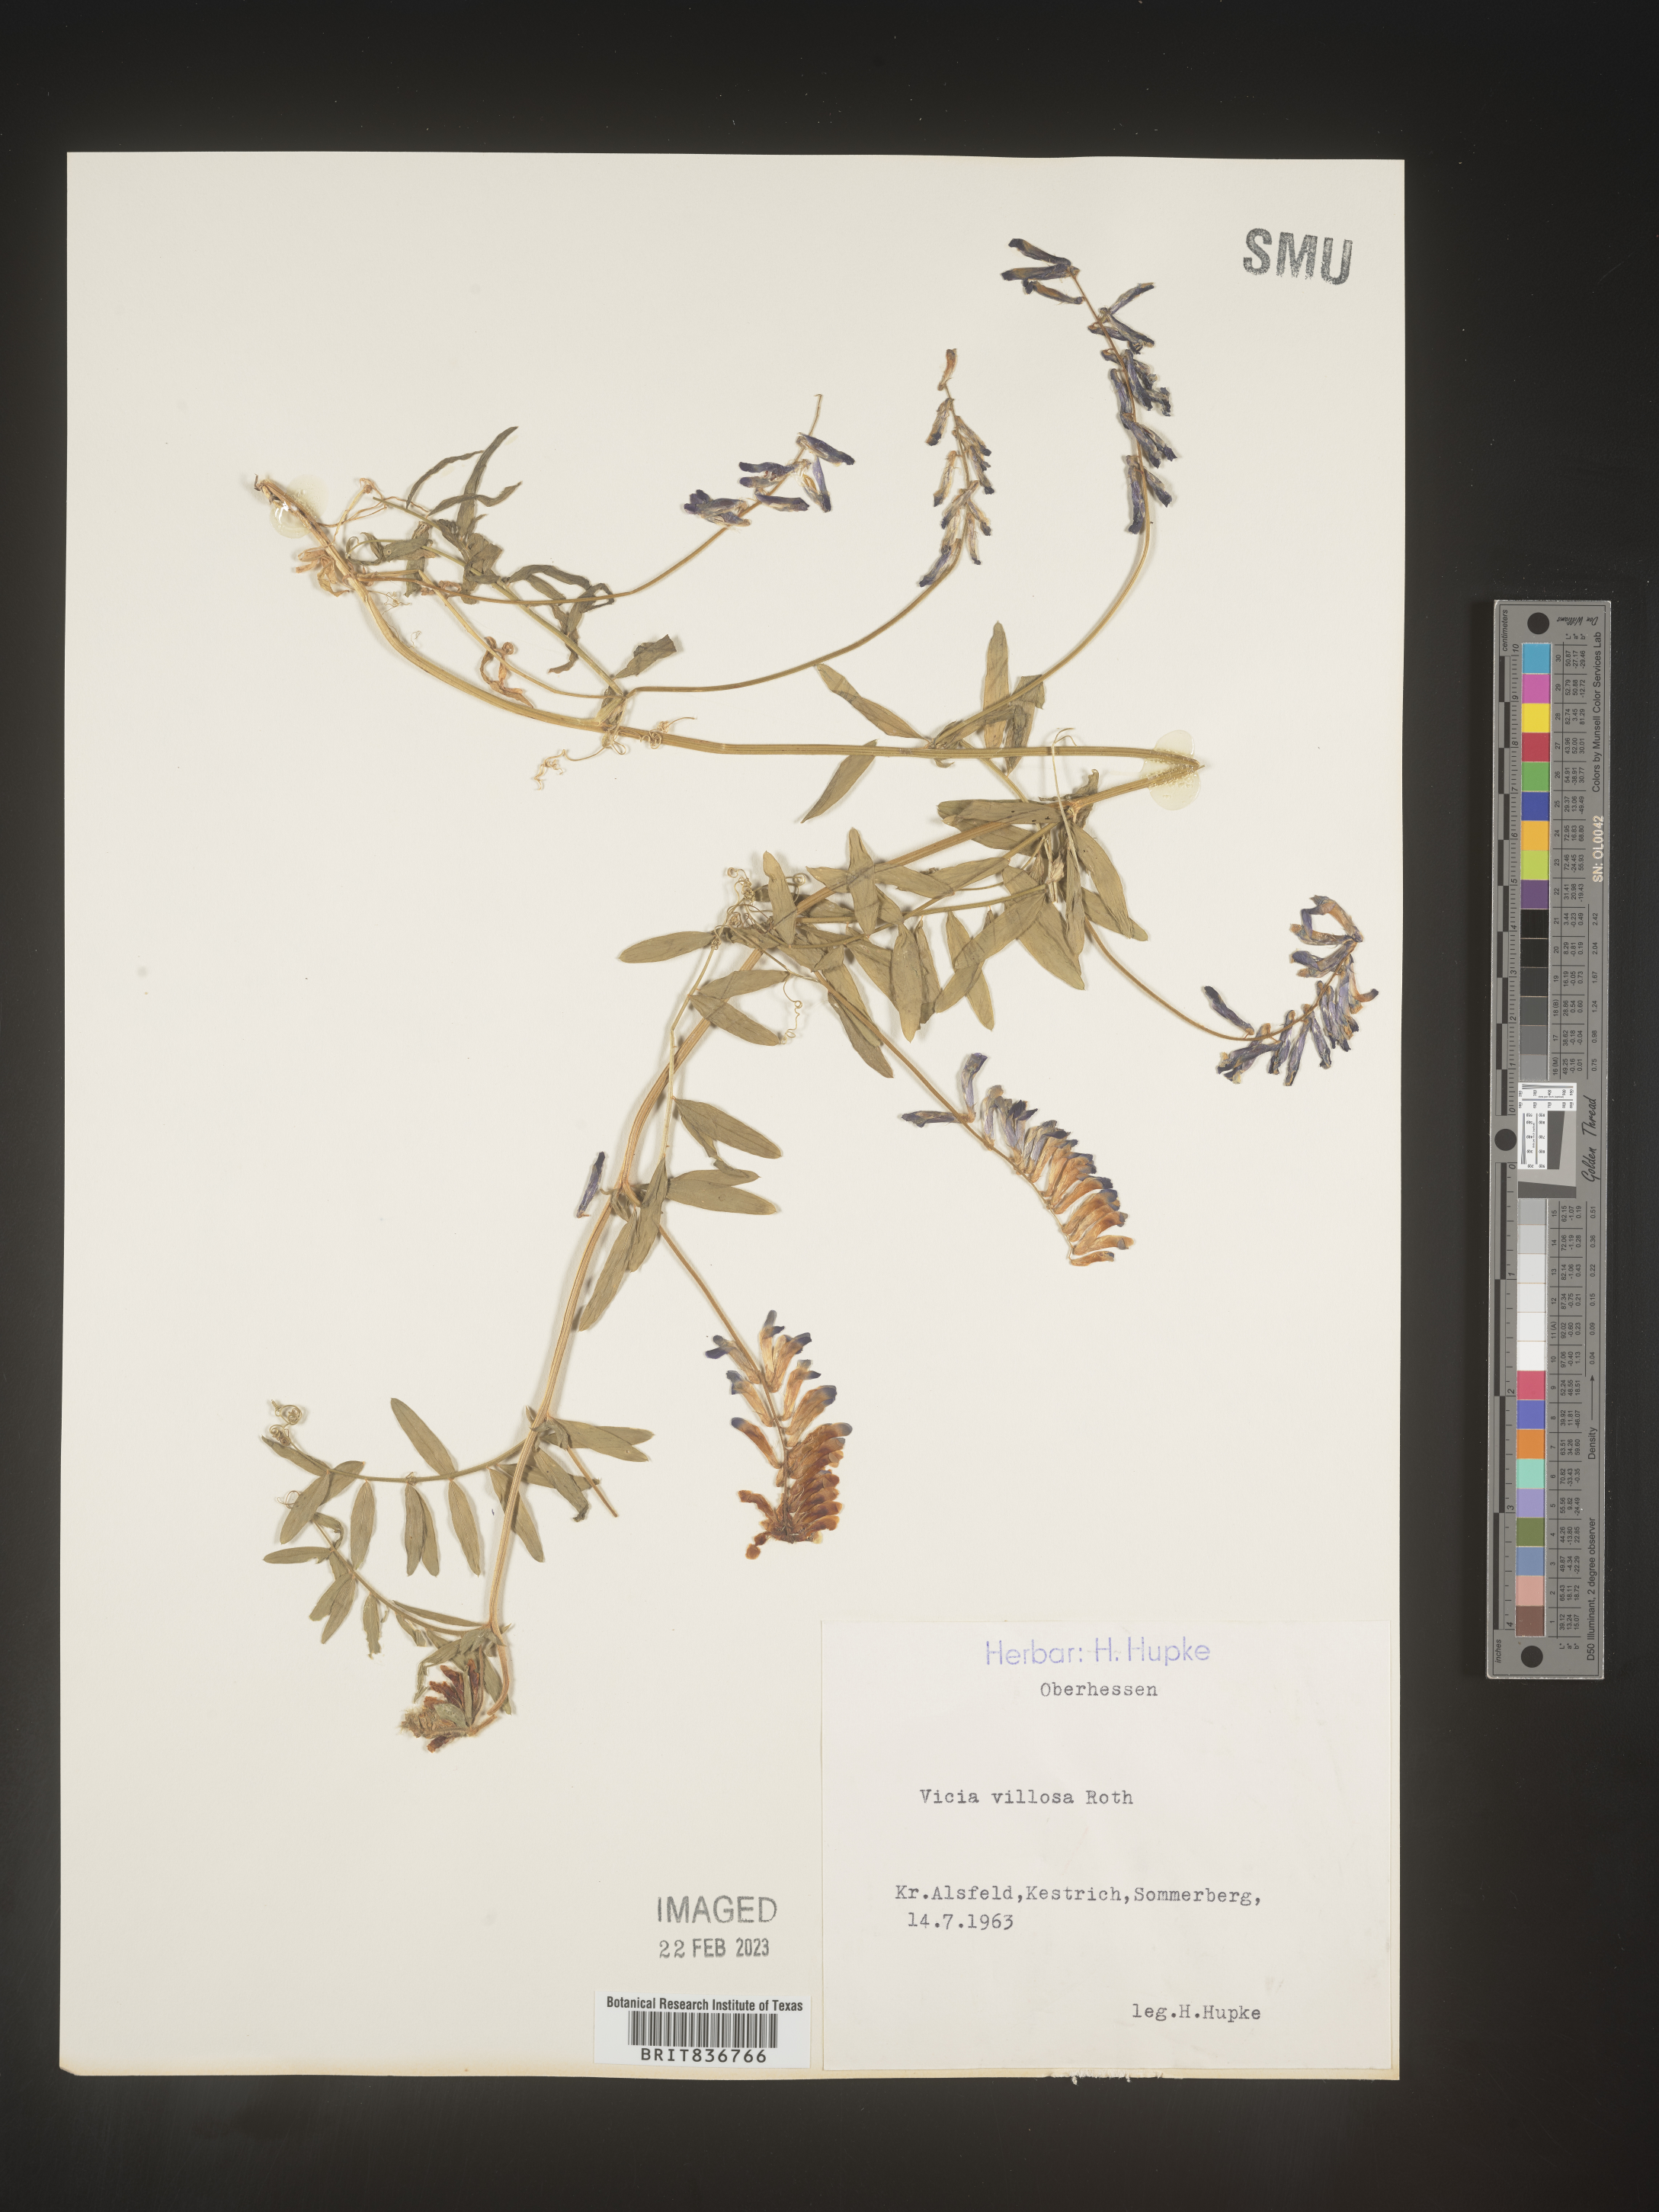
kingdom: Plantae
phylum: Tracheophyta
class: Magnoliopsida
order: Fabales
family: Fabaceae
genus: Vicia
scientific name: Vicia
